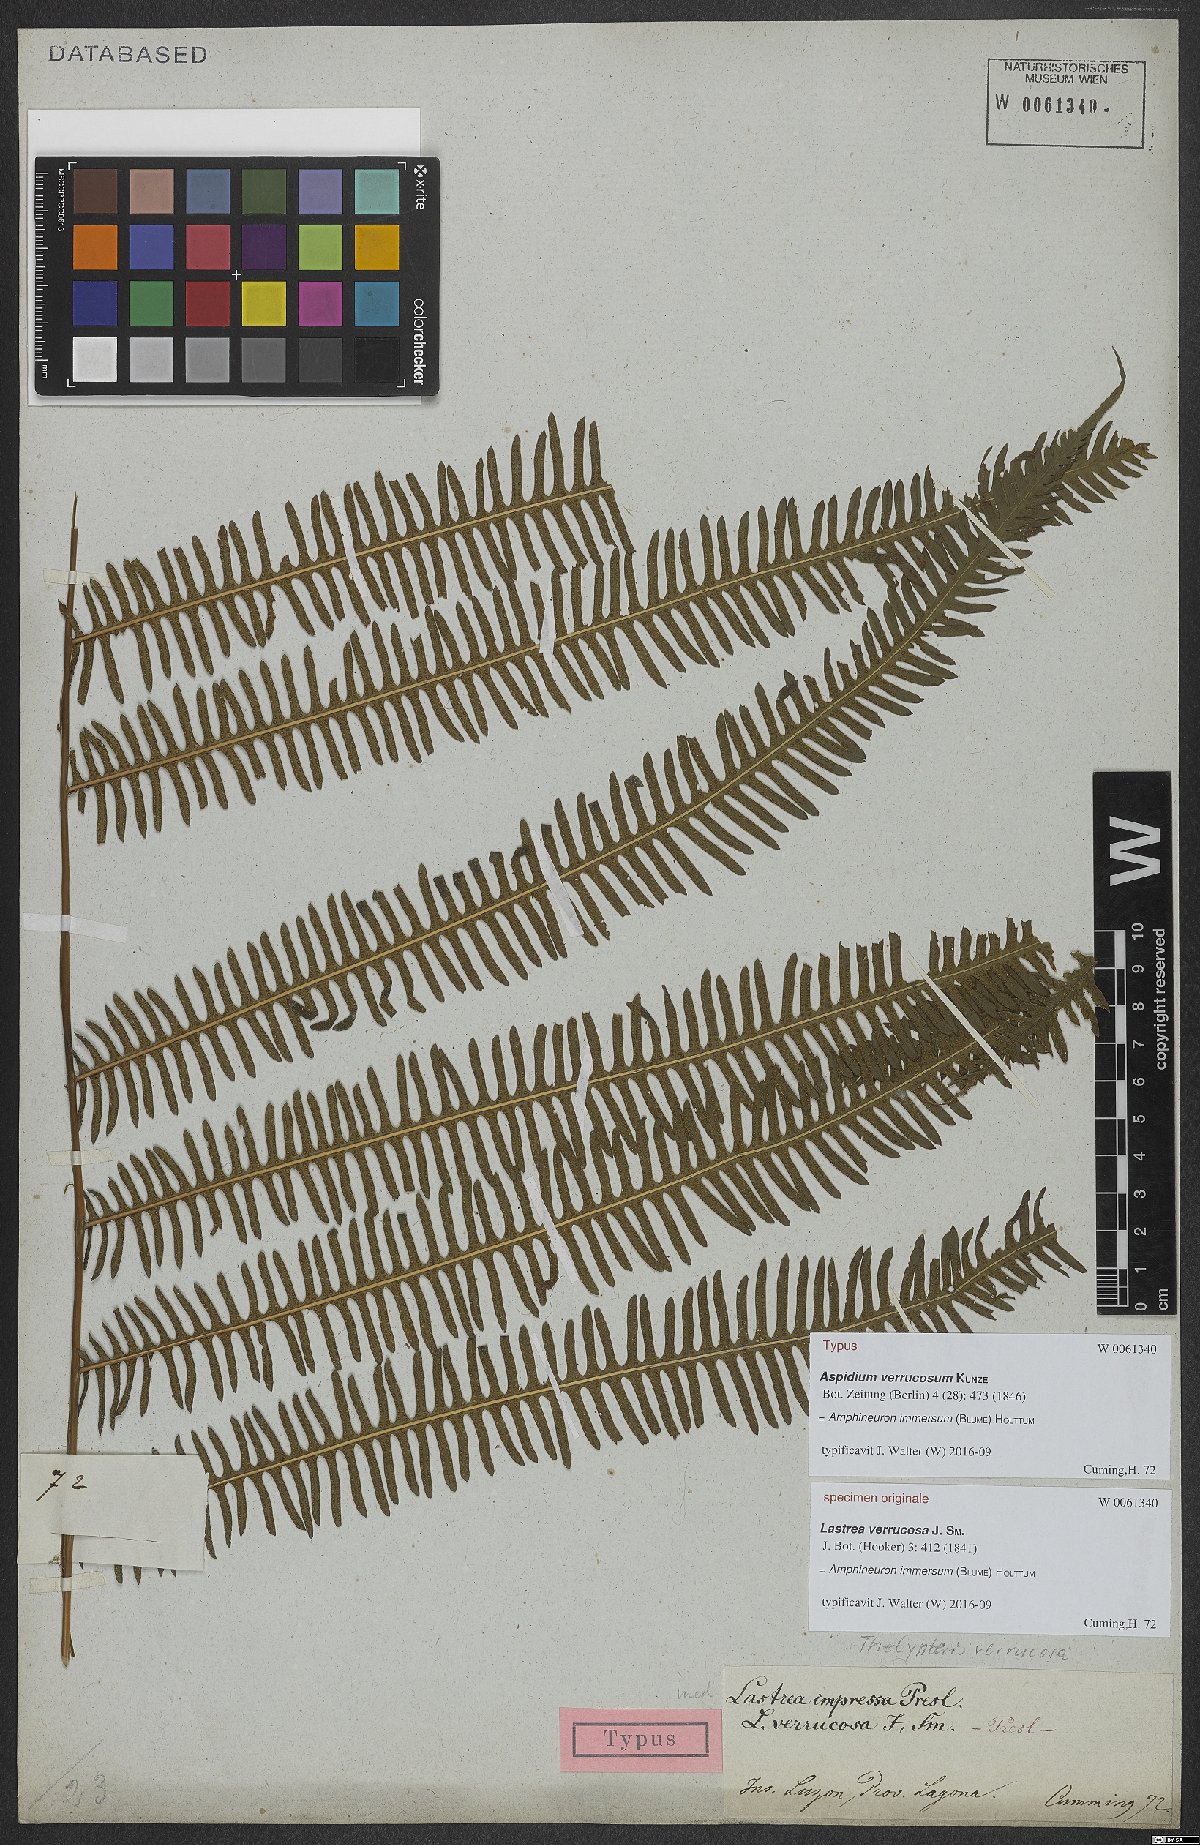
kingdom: Plantae
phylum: Tracheophyta
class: Polypodiopsida
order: Polypodiales
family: Thelypteridaceae
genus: Amblovenatum
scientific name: Amblovenatum immersum
